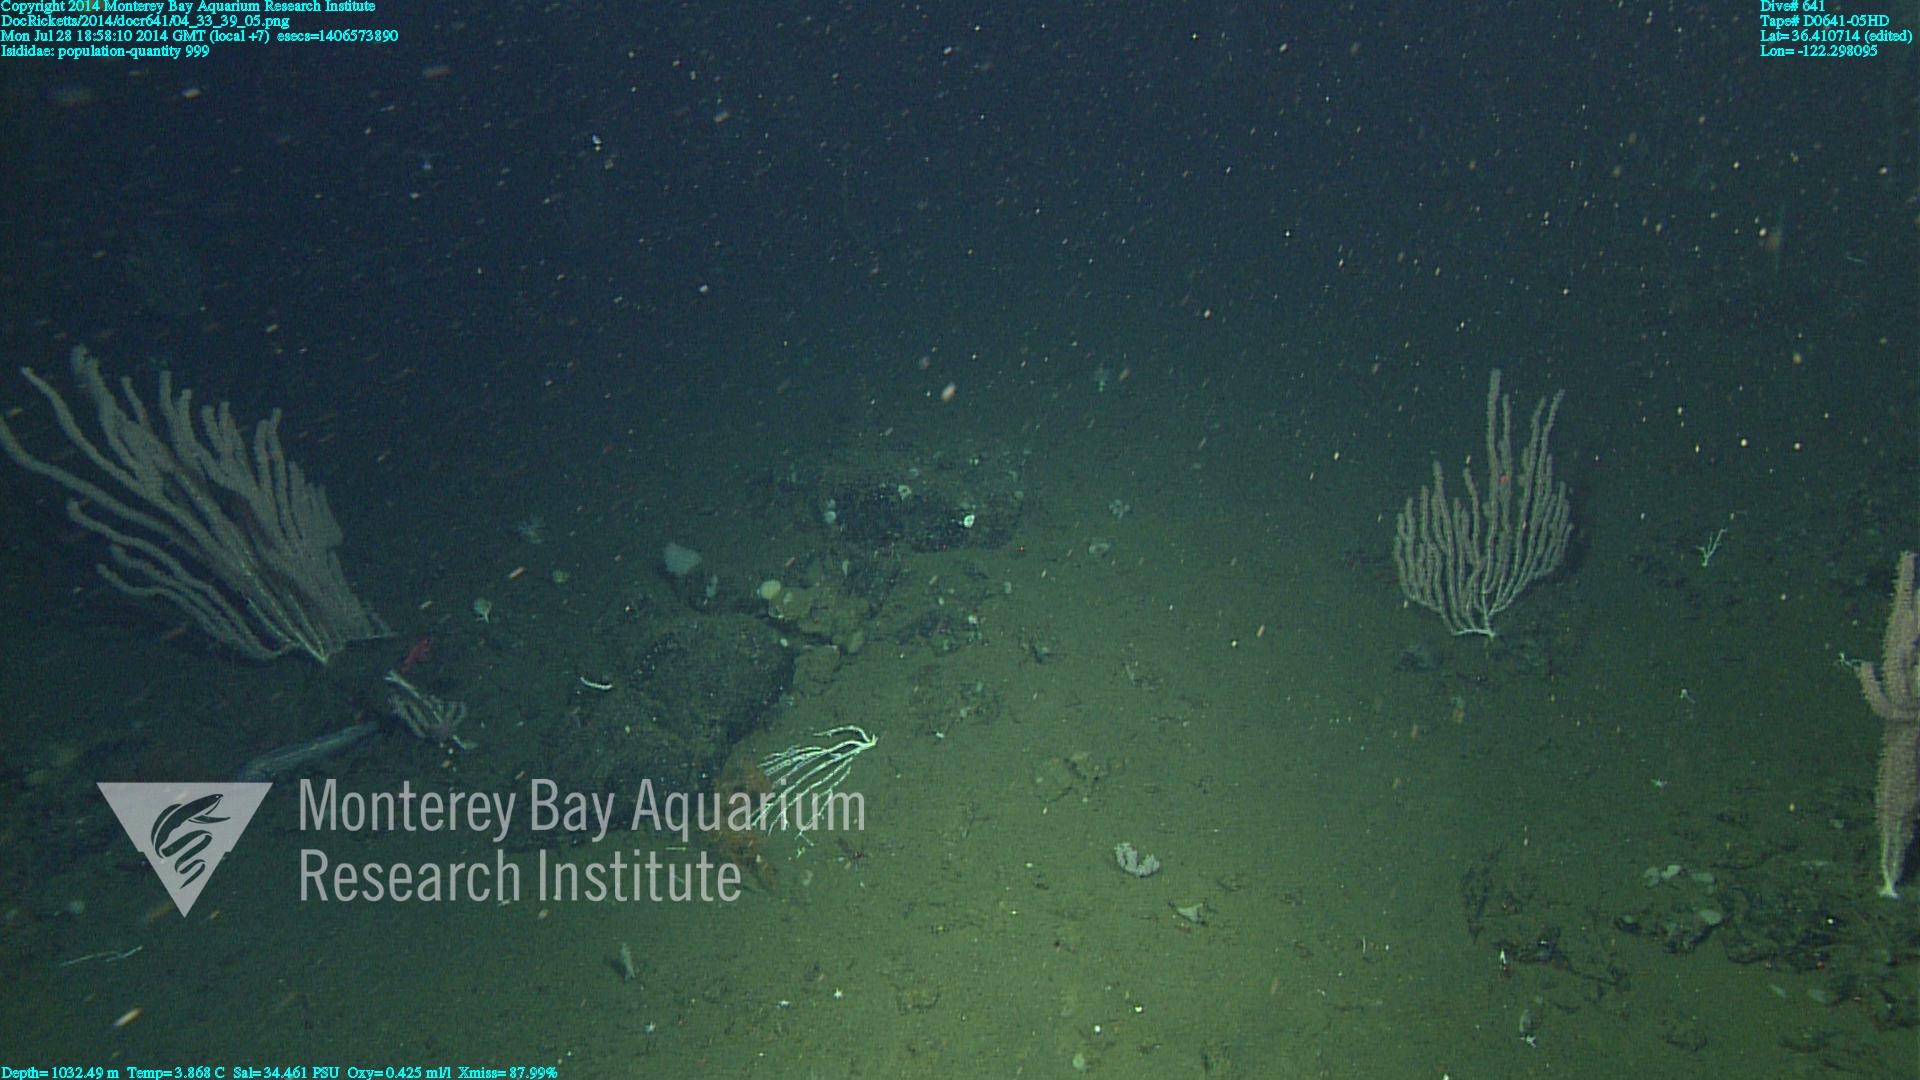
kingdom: Animalia
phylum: Cnidaria
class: Anthozoa
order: Scleralcyonacea
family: Keratoisididae
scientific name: Keratoisididae
